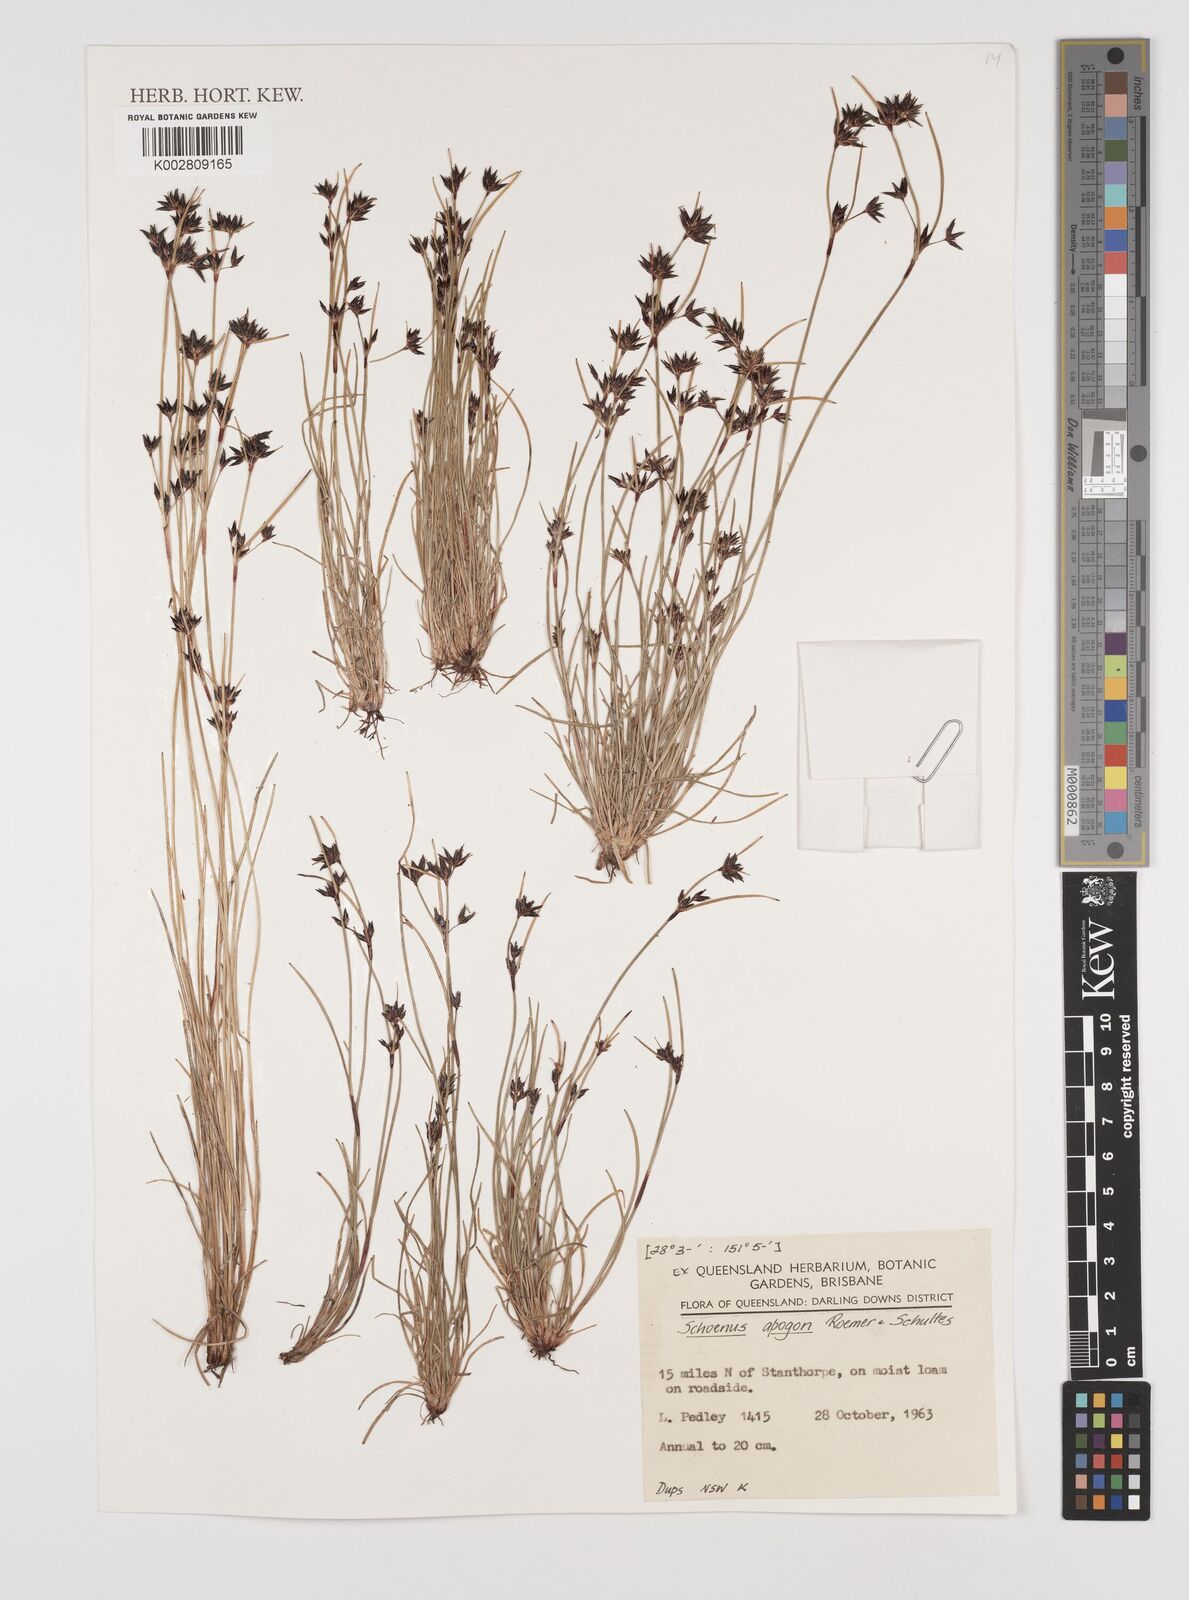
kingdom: Plantae
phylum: Tracheophyta
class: Liliopsida
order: Poales
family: Cyperaceae
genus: Schoenus
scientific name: Schoenus apogon
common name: Smooth bogrush
